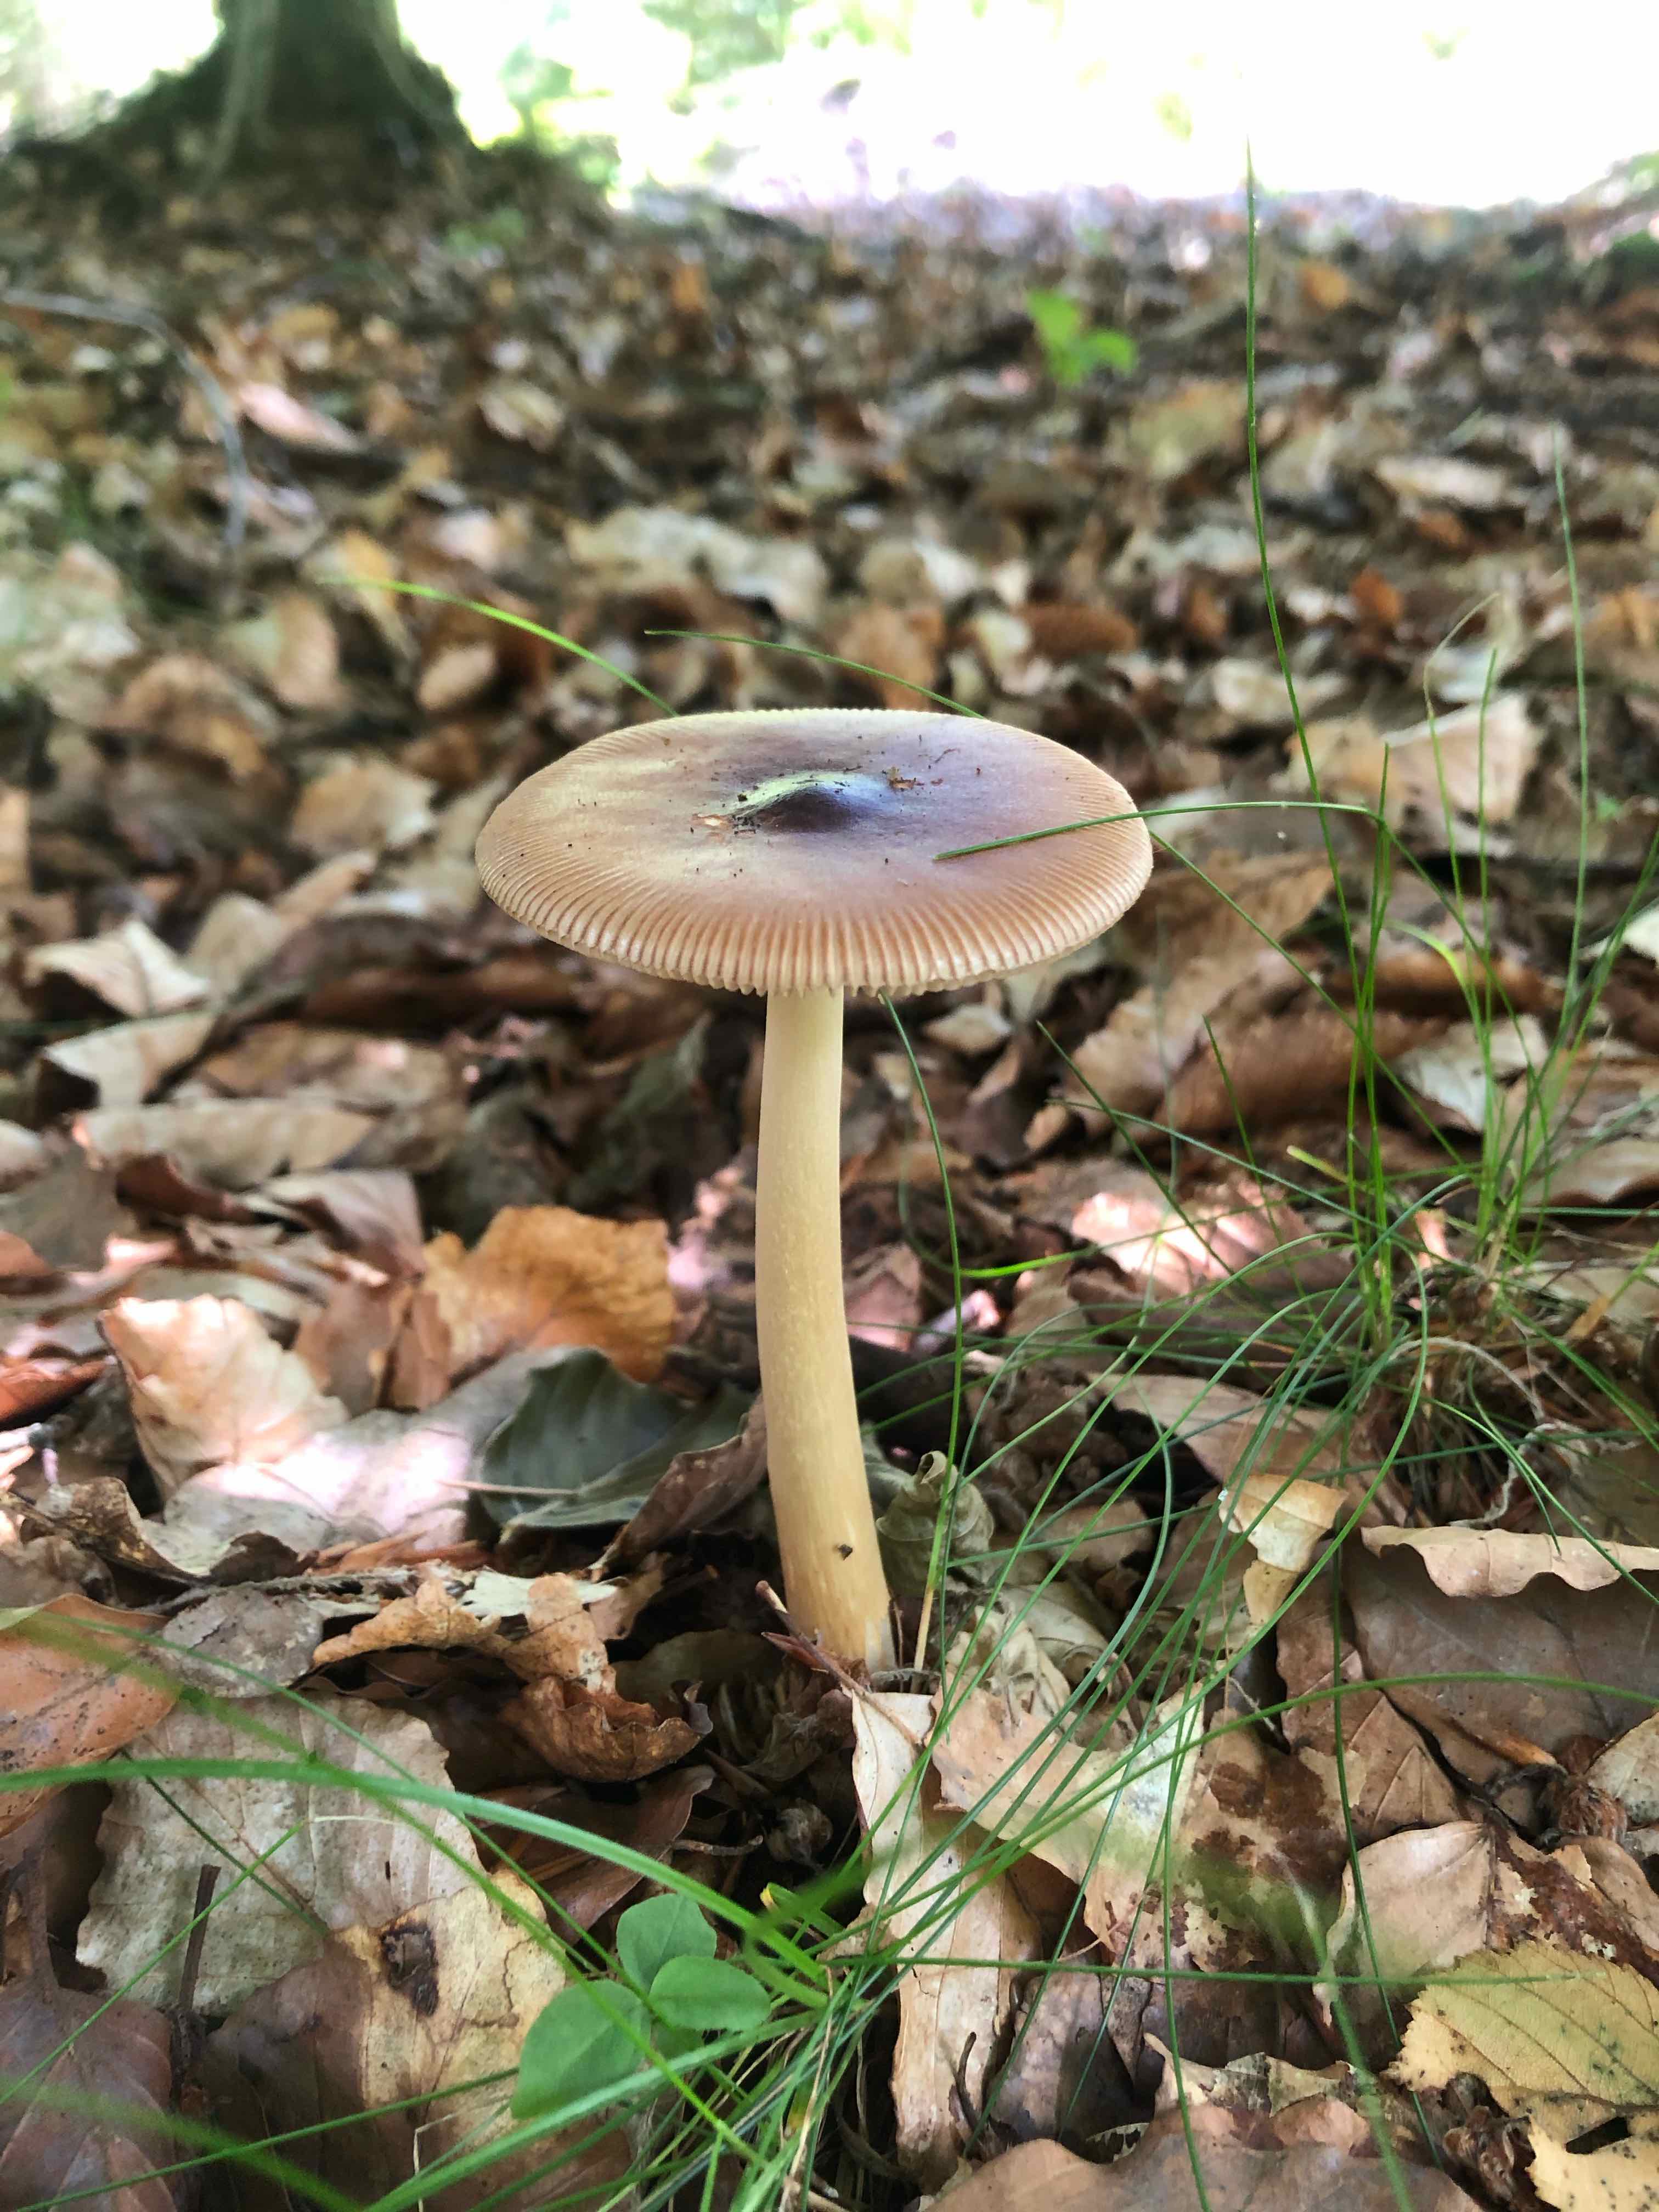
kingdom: Fungi
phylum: Basidiomycota
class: Agaricomycetes
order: Agaricales
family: Amanitaceae
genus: Amanita
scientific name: Amanita fulva
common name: brun kam-fluesvamp
